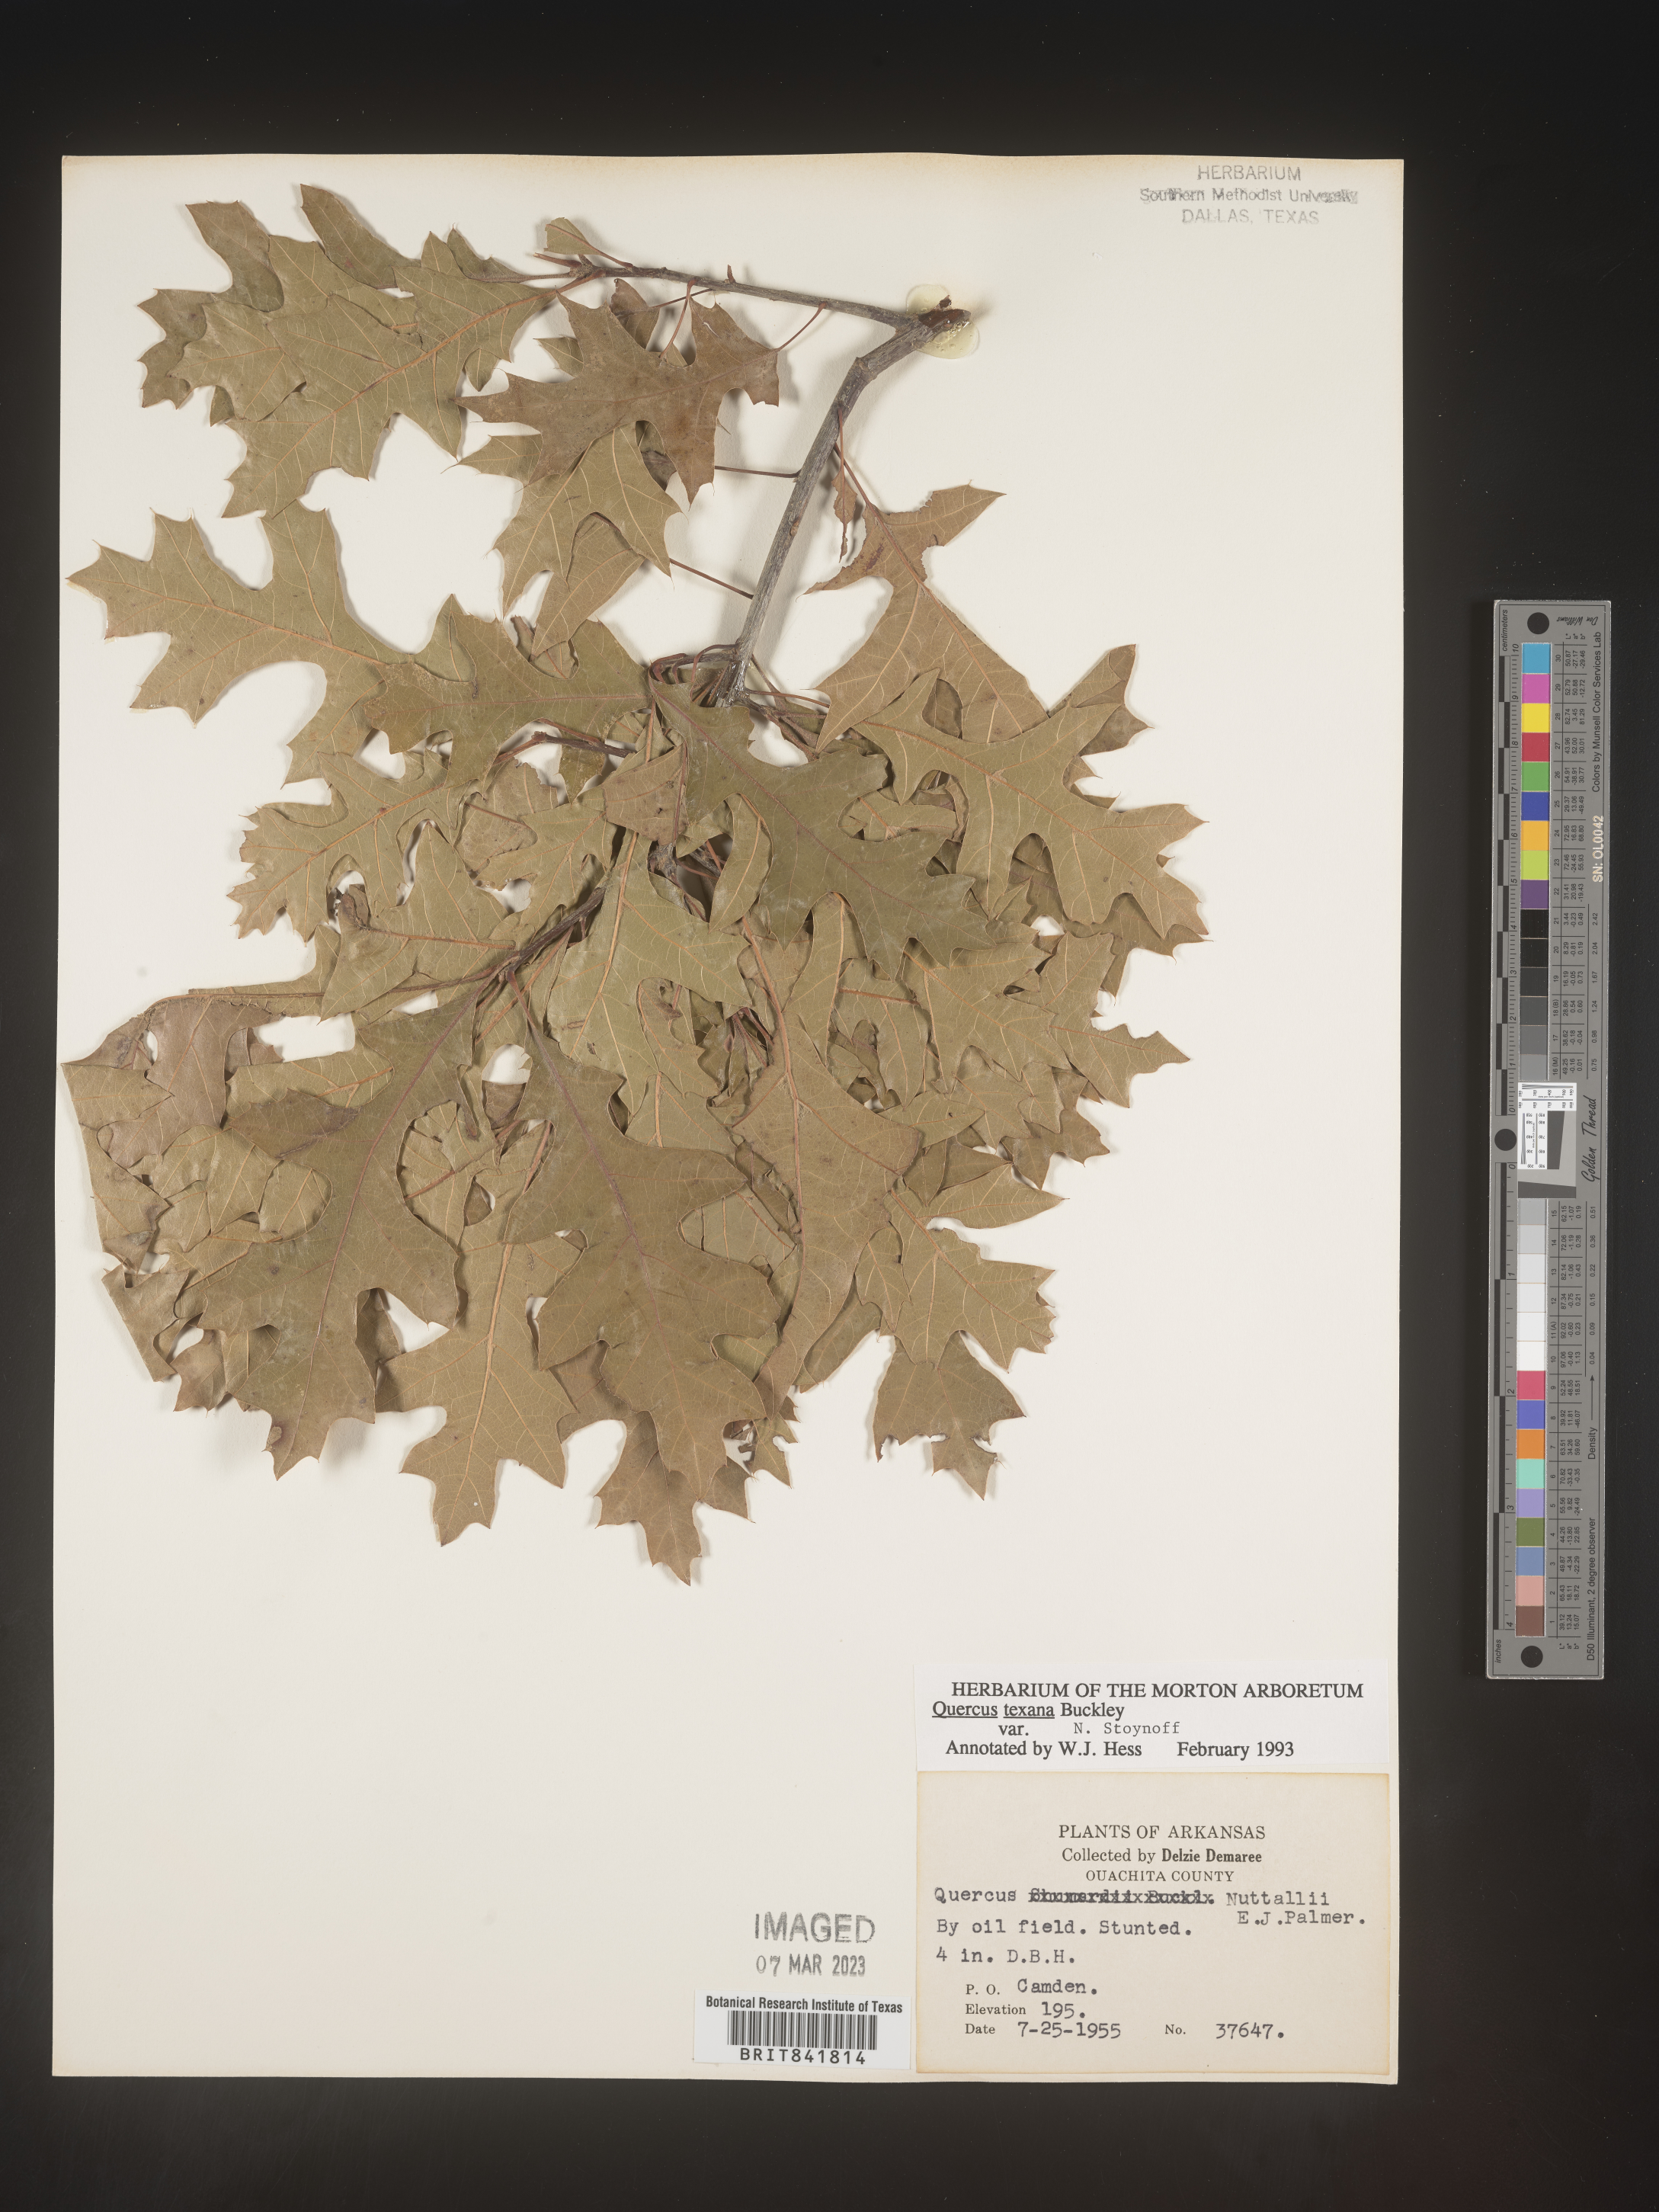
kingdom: Plantae
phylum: Tracheophyta
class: Magnoliopsida
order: Fagales
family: Fagaceae
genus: Quercus
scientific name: Quercus texana
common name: Nuttall oak
